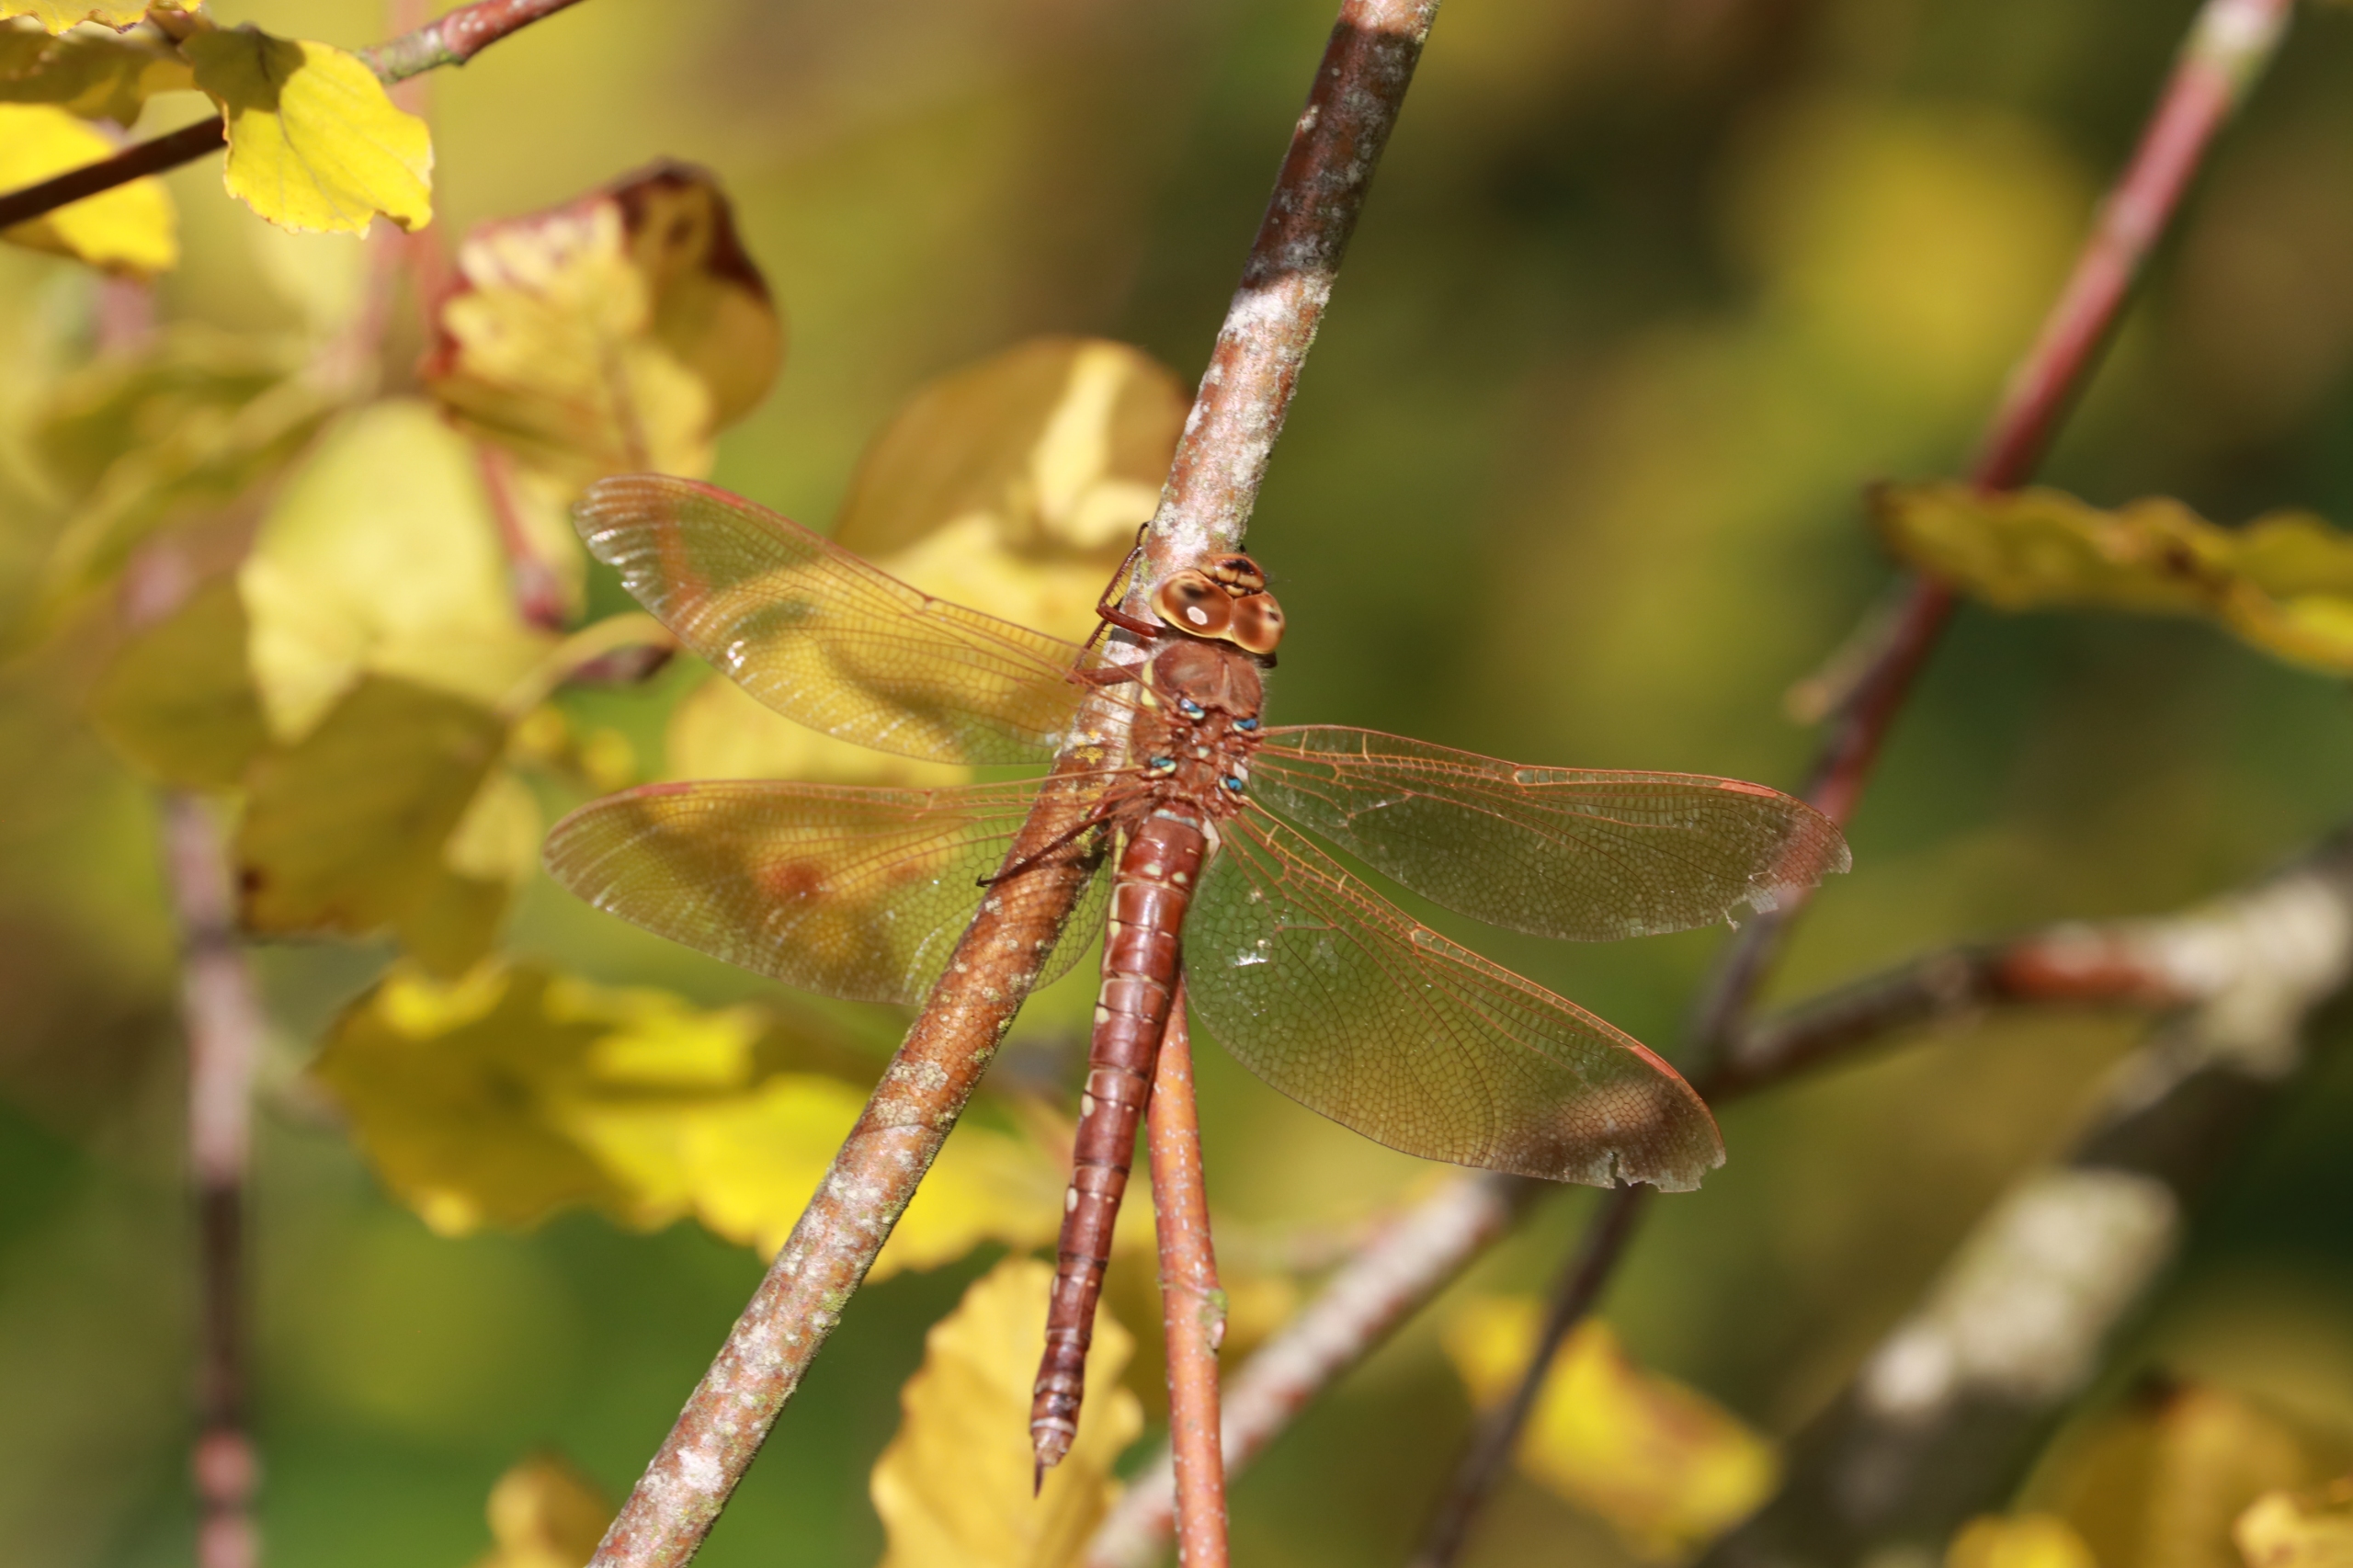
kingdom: Animalia
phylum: Arthropoda
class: Insecta
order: Odonata
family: Aeshnidae
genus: Aeshna
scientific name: Aeshna grandis
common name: Brun mosaikguldsmed
